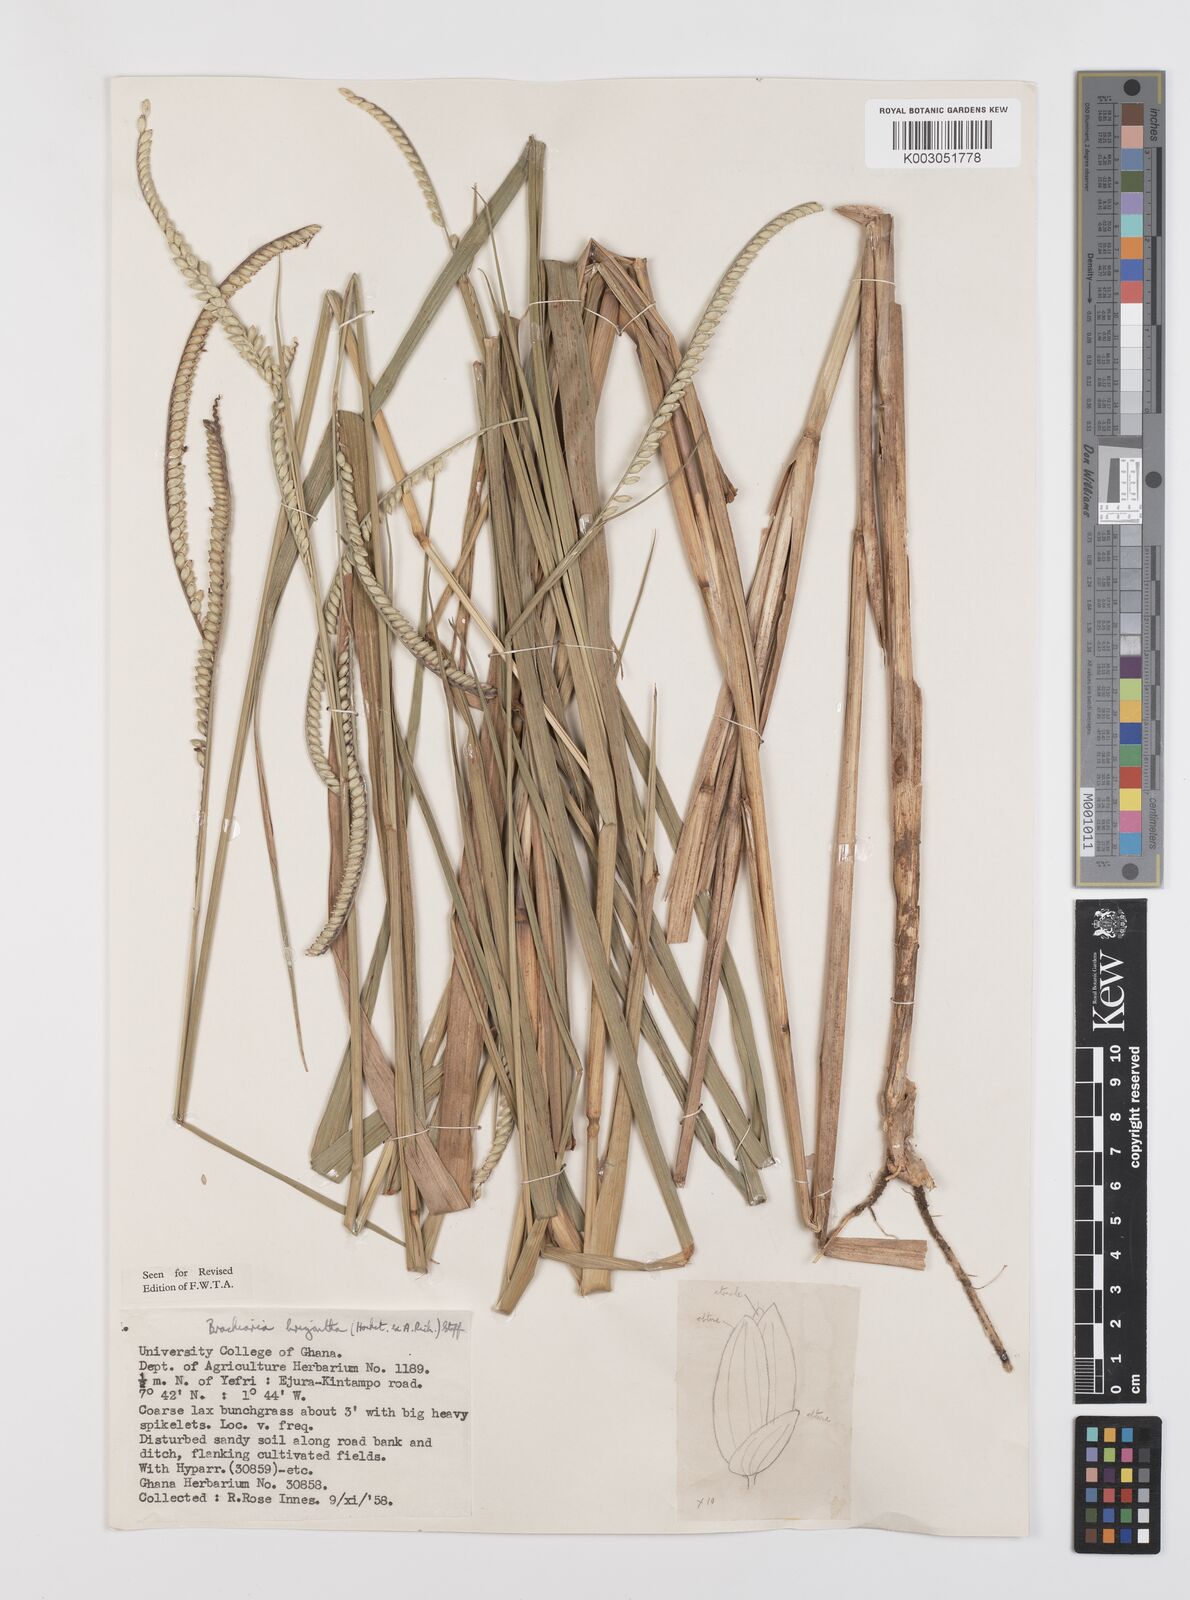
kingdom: Plantae
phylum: Tracheophyta
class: Liliopsida
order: Poales
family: Poaceae
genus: Urochloa
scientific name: Urochloa brizantha
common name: Palisade signalgrass
